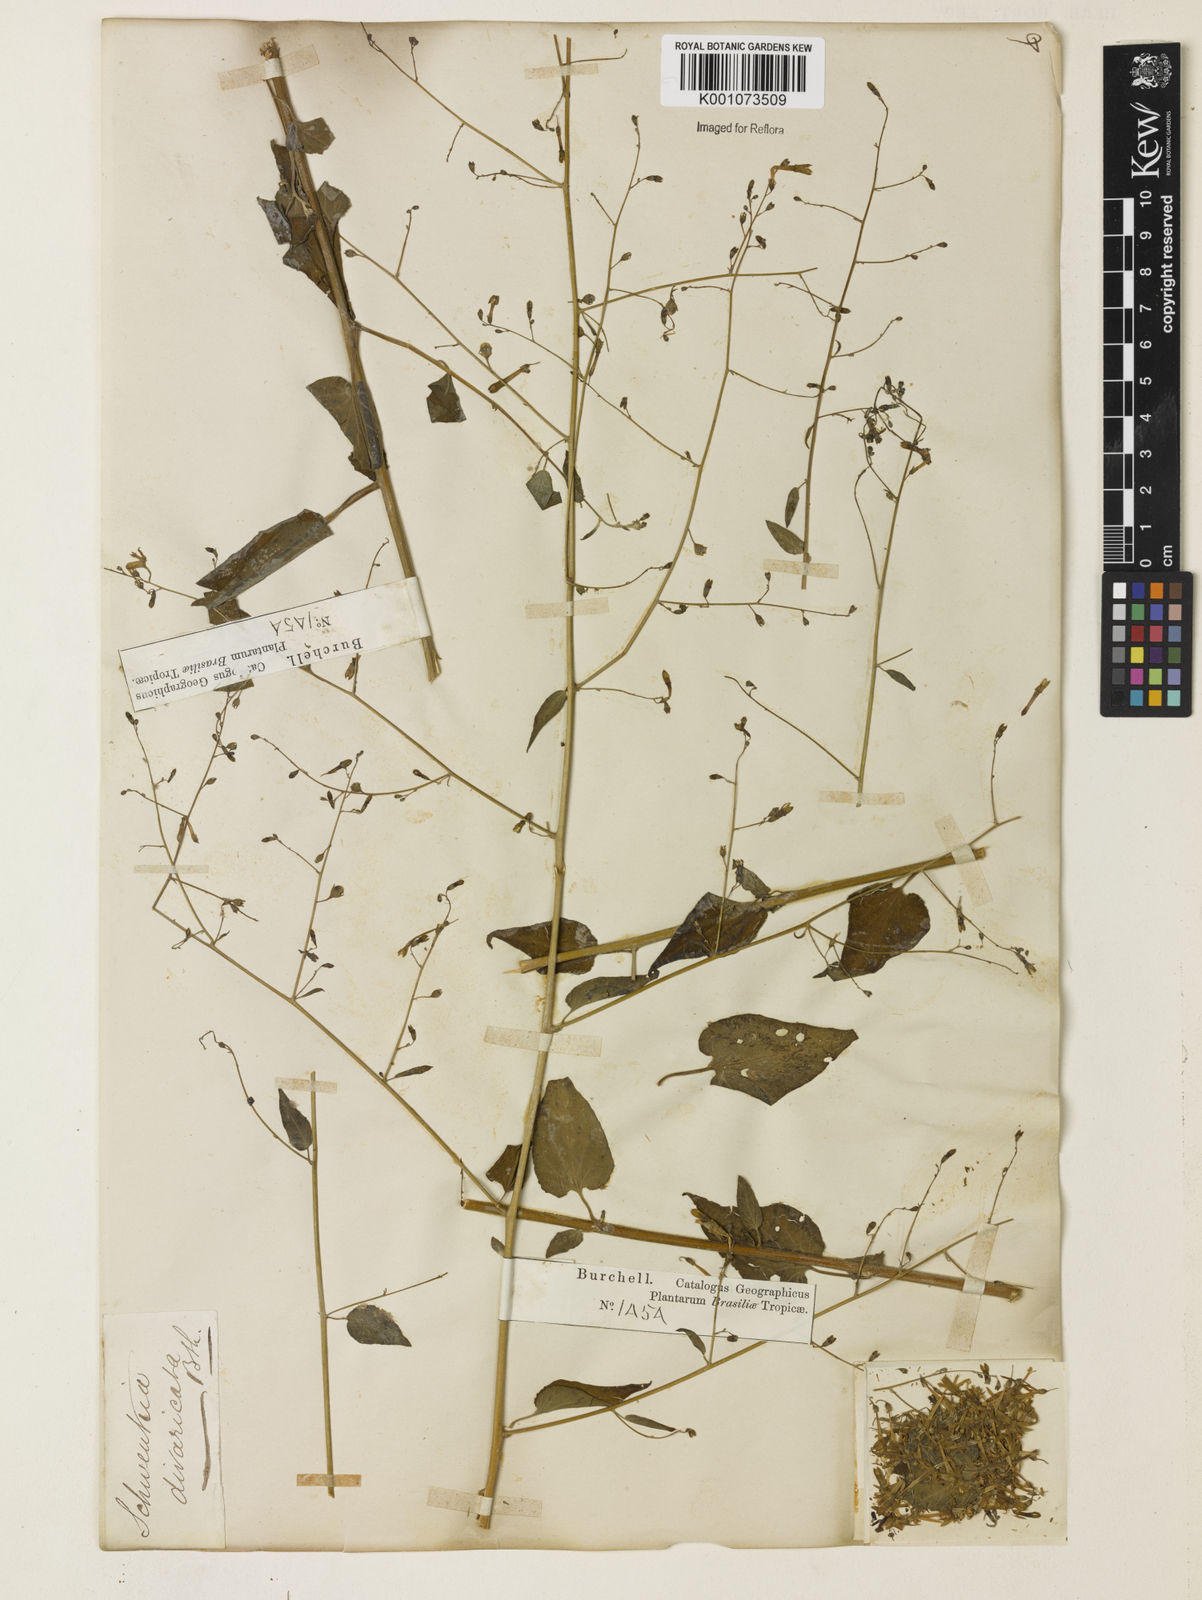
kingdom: Plantae
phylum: Tracheophyta
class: Magnoliopsida
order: Solanales
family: Solanaceae
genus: Schwenckia
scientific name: Schwenckia paniculata
